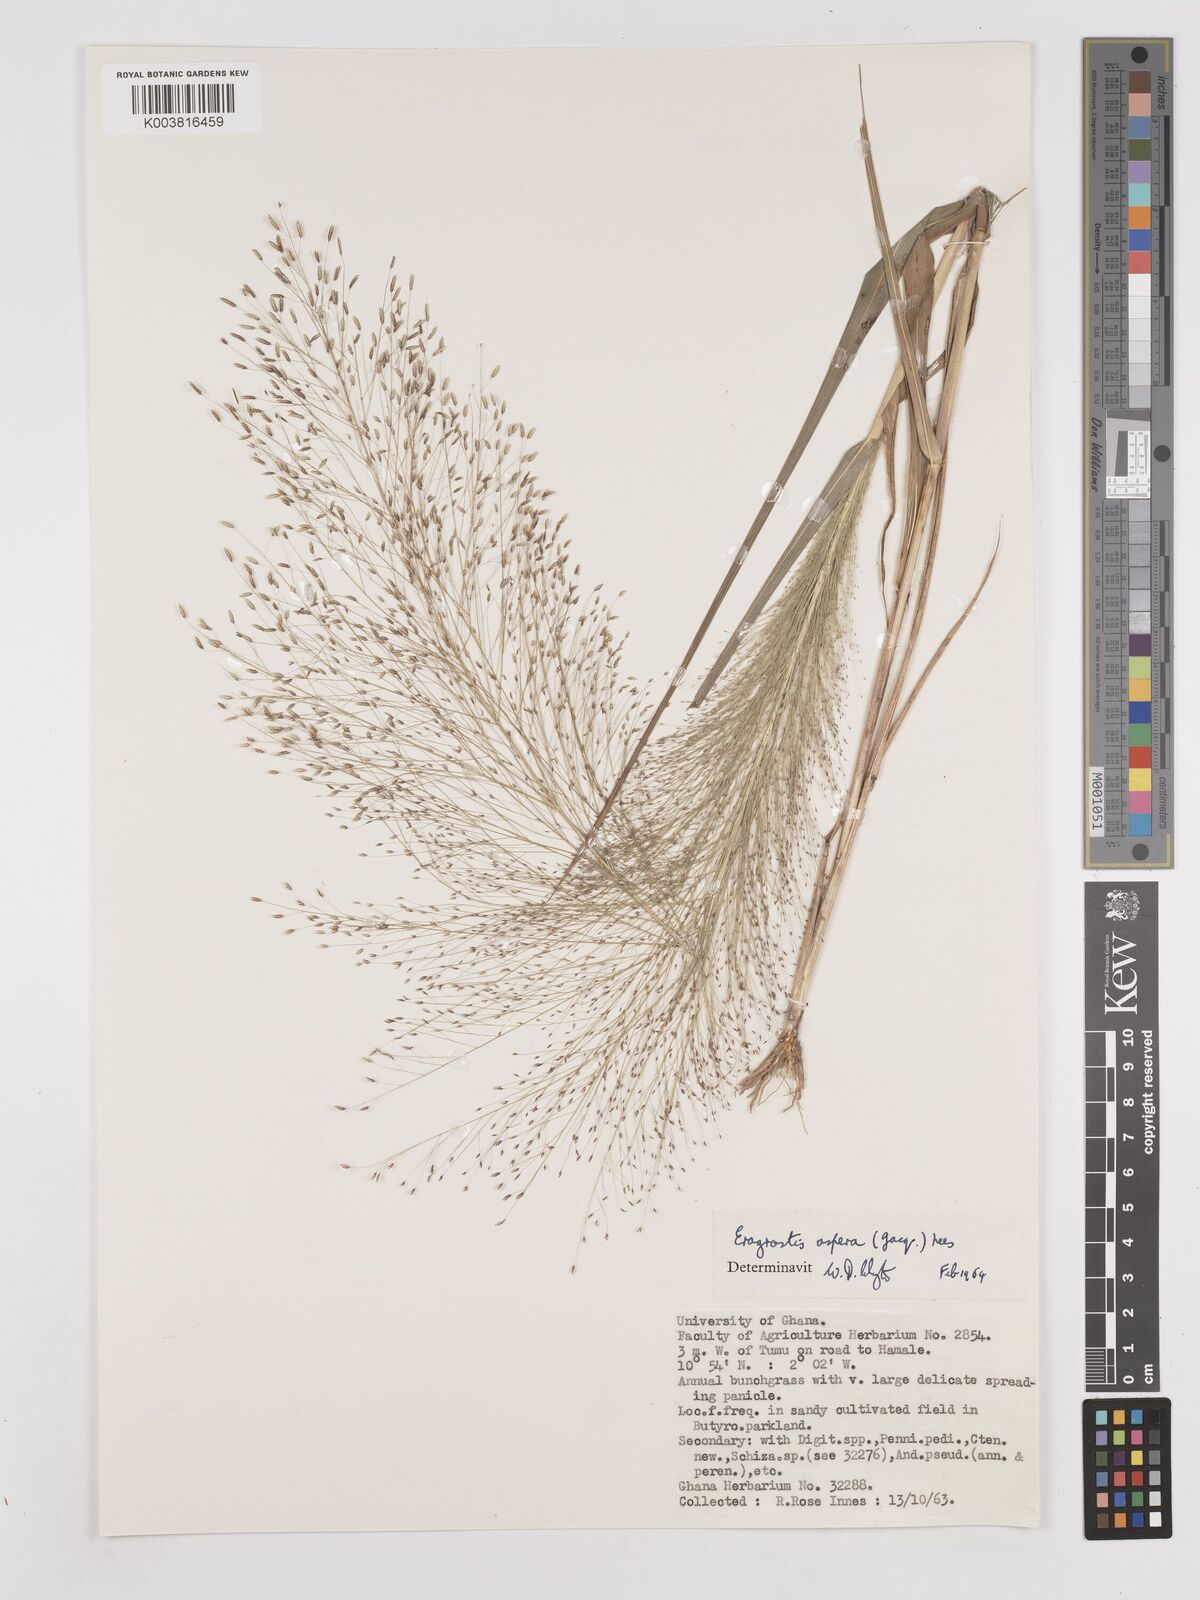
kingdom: Plantae
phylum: Tracheophyta
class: Liliopsida
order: Poales
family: Poaceae
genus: Eragrostis
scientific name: Eragrostis aspera
